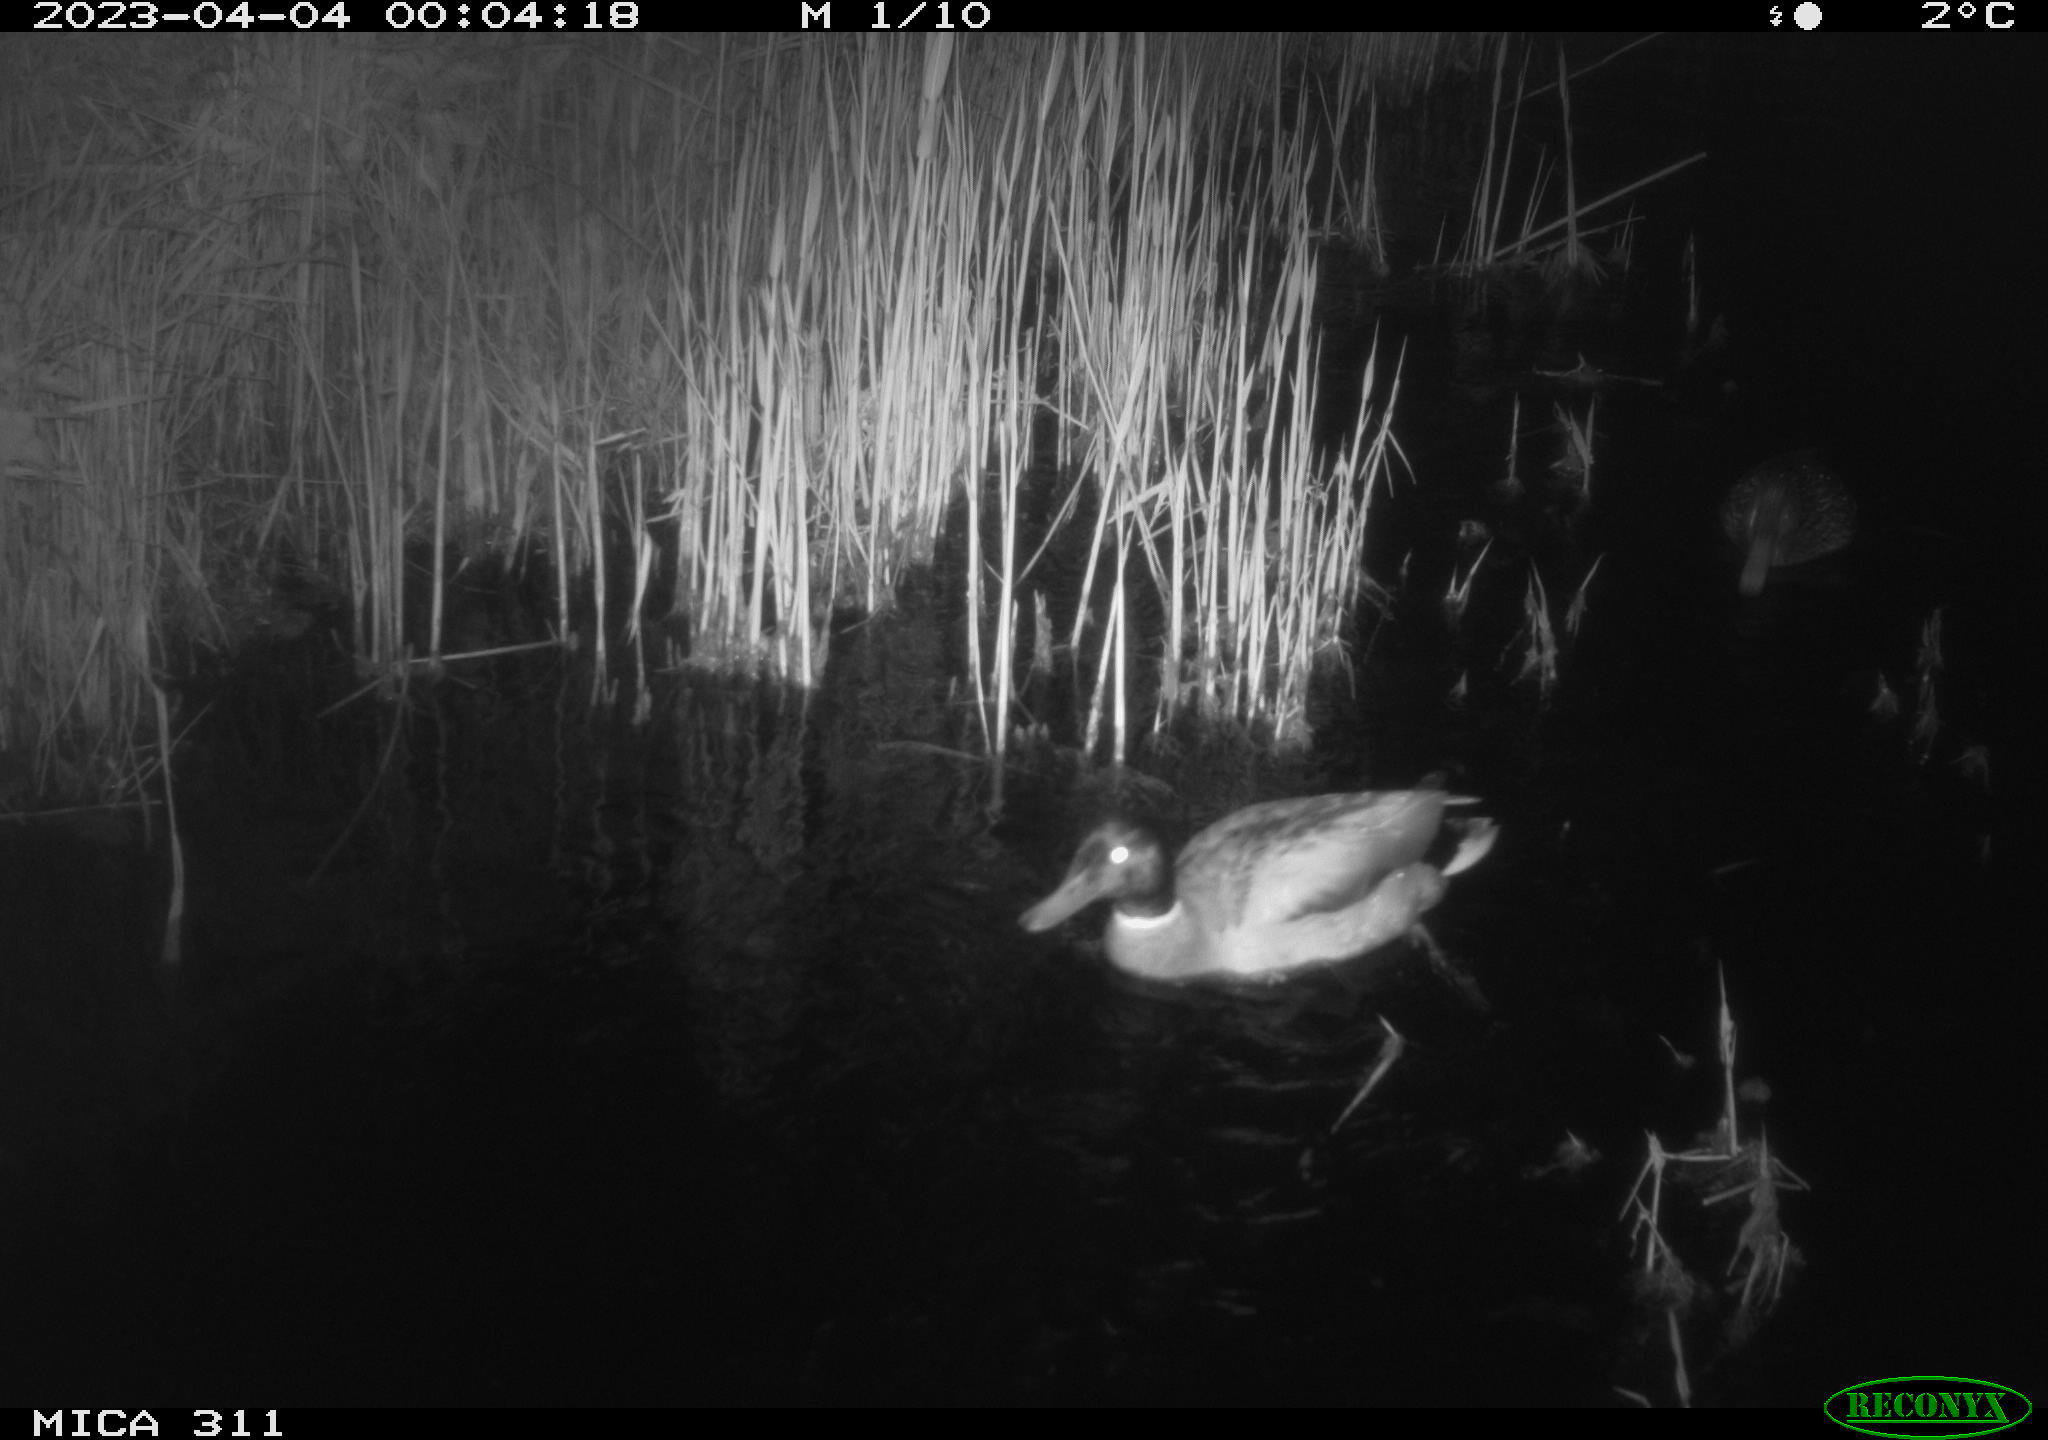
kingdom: Animalia
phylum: Chordata
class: Aves
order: Anseriformes
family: Anatidae
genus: Anas
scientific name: Anas
